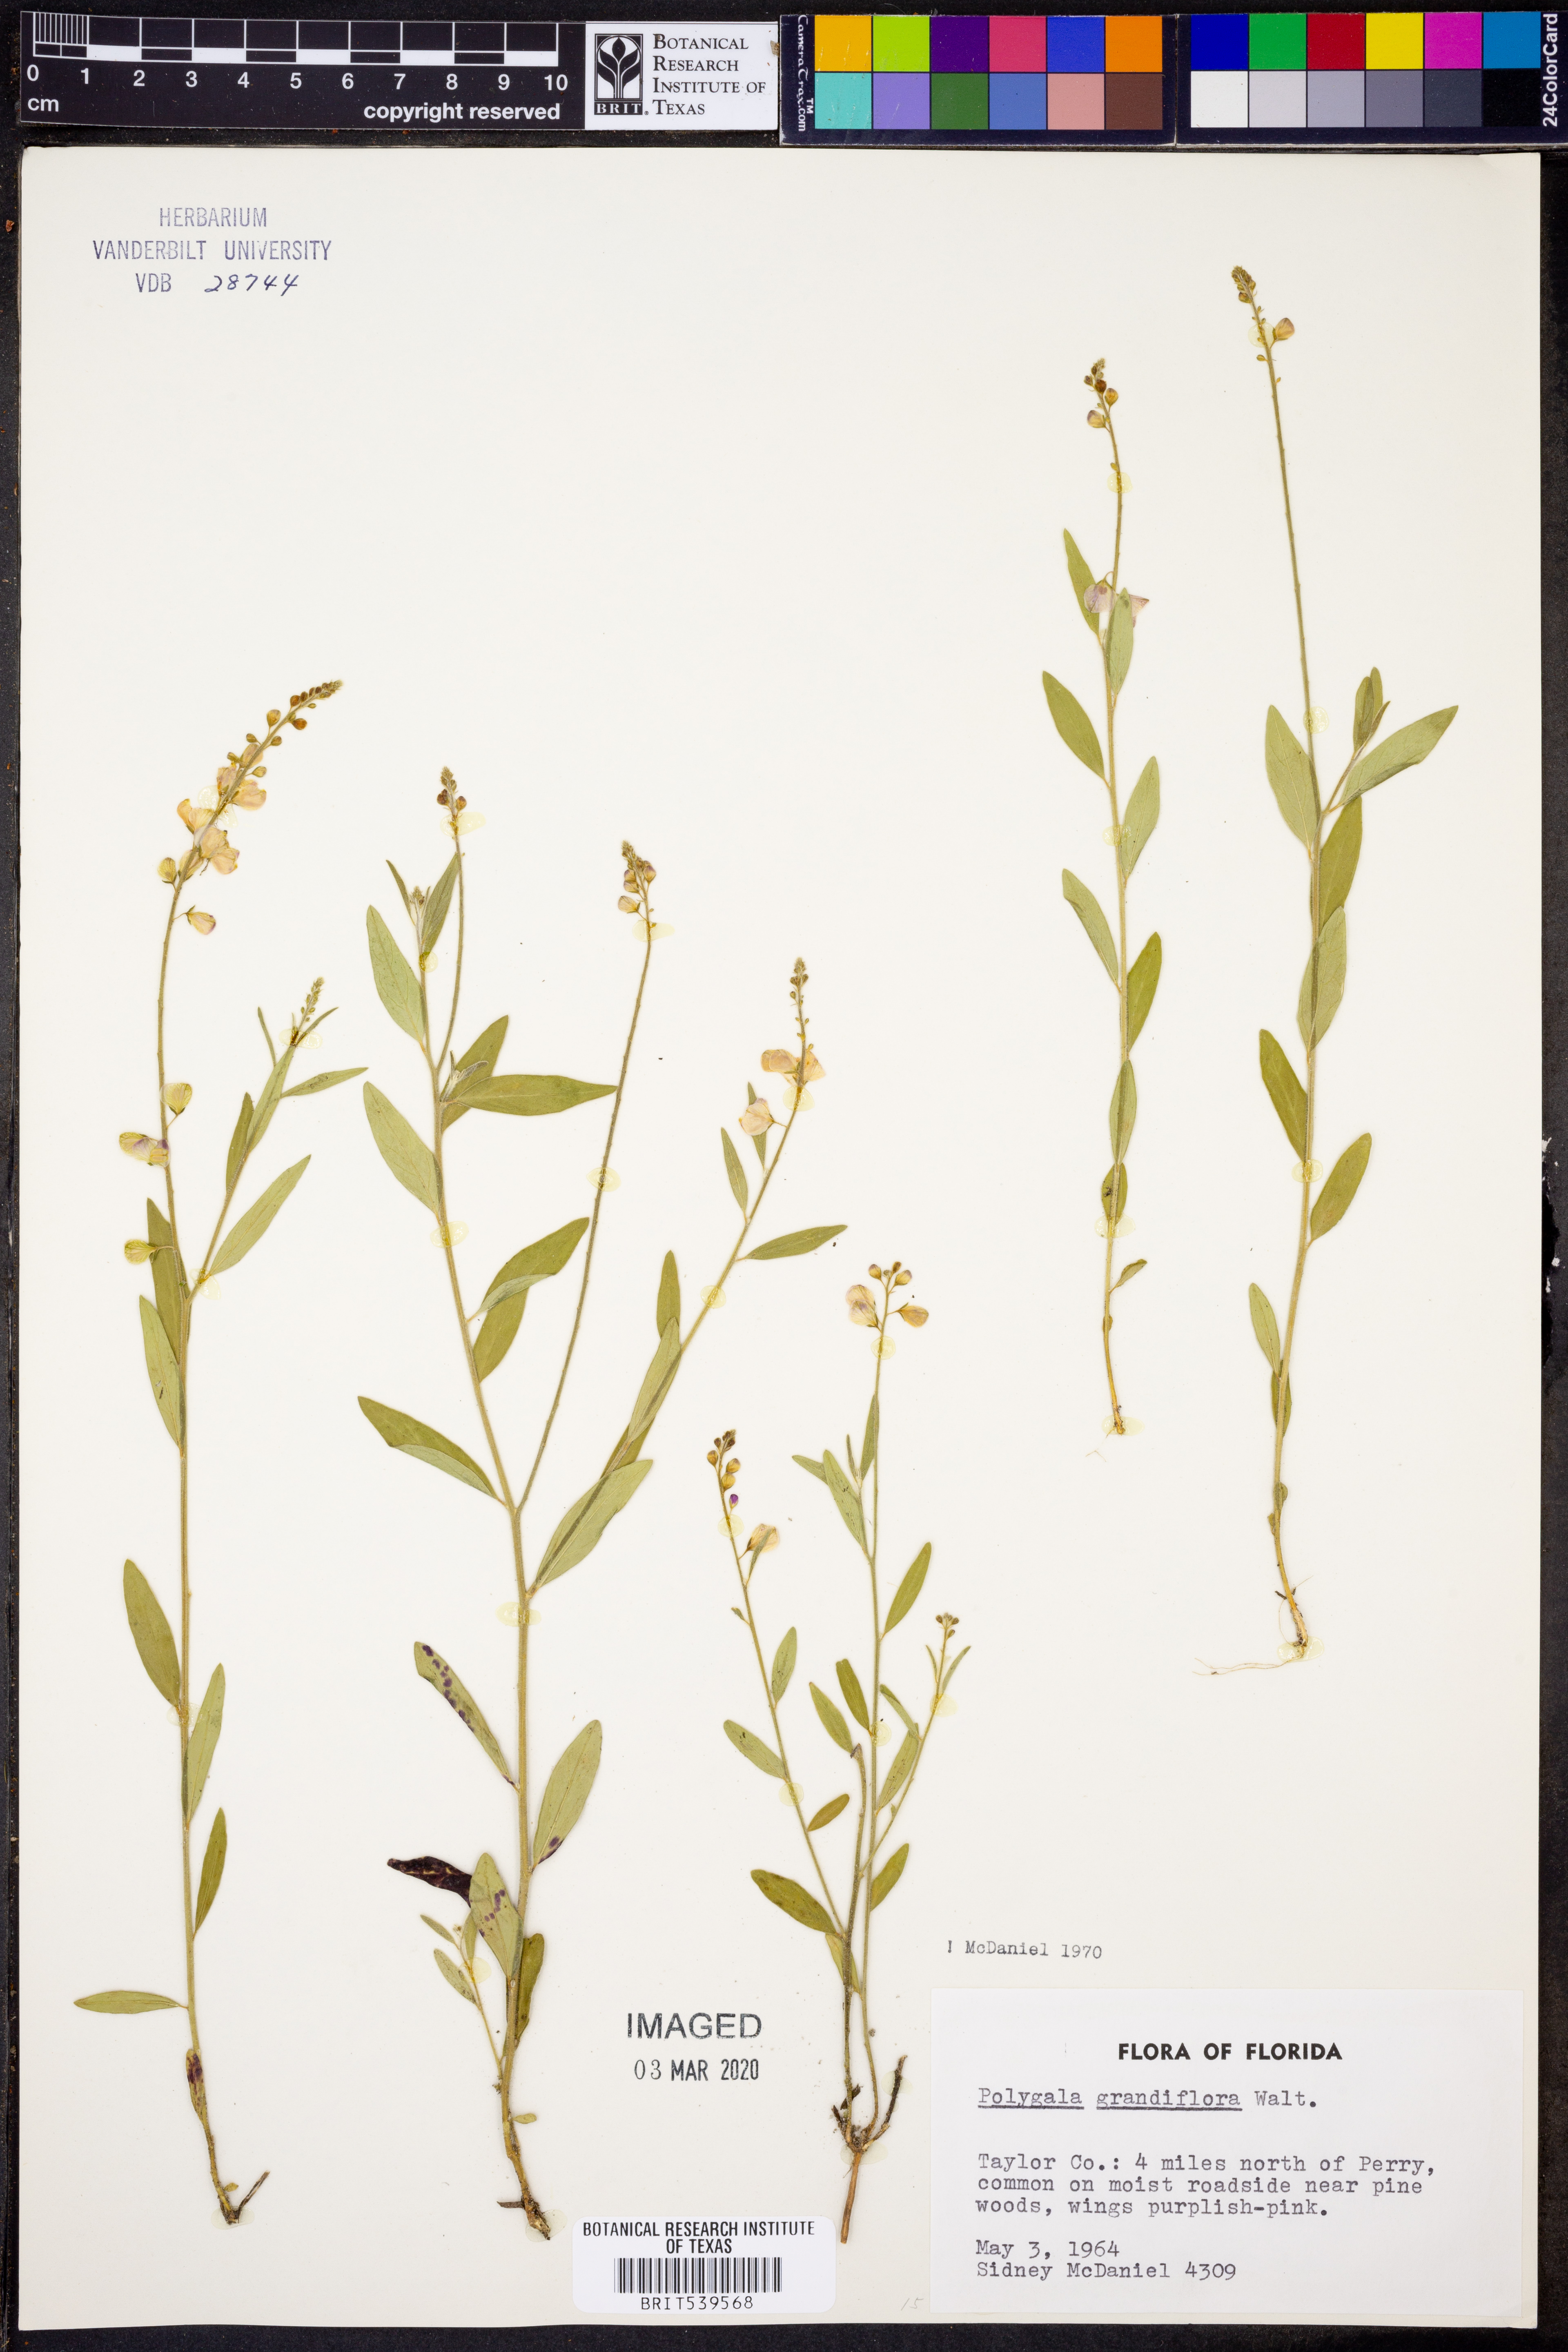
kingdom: Plantae
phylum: Tracheophyta
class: Magnoliopsida
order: Fabales
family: Polygalaceae
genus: Asemeia
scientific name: Asemeia grandiflora
